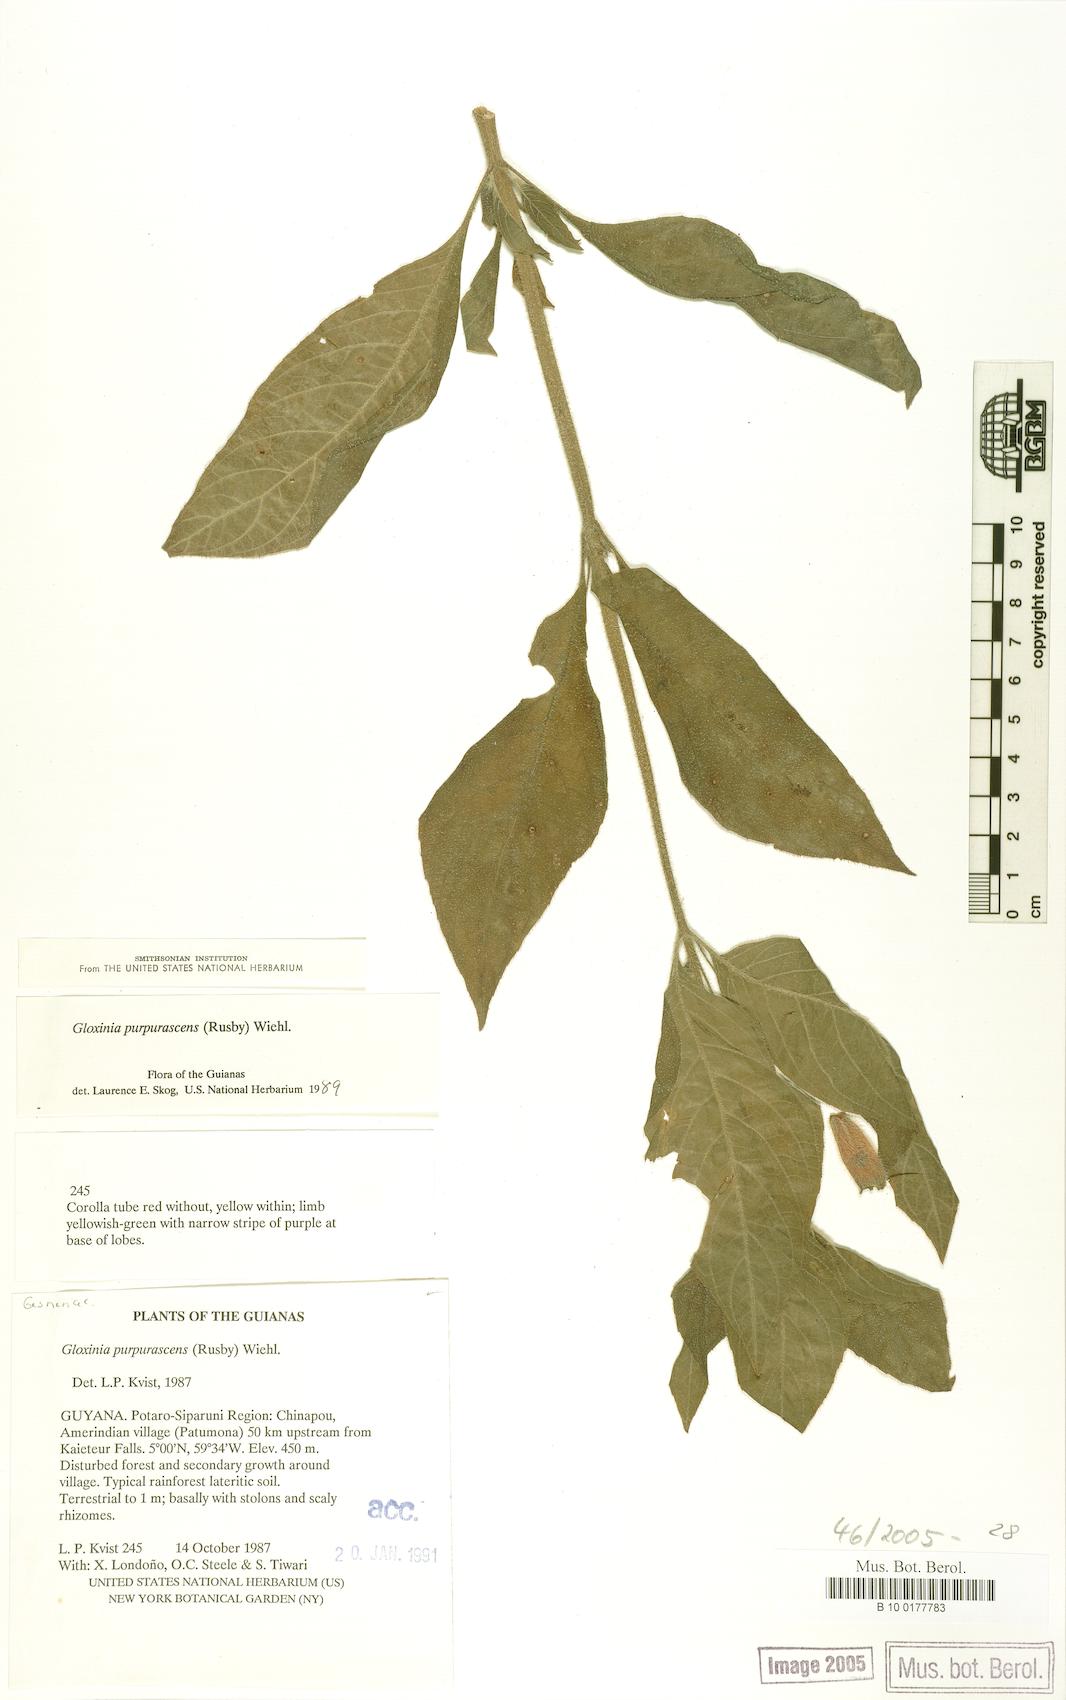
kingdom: Plantae
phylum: Tracheophyta
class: Magnoliopsida
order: Lamiales
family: Gesneriaceae
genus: Seemannia
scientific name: Seemannia purpurascens
